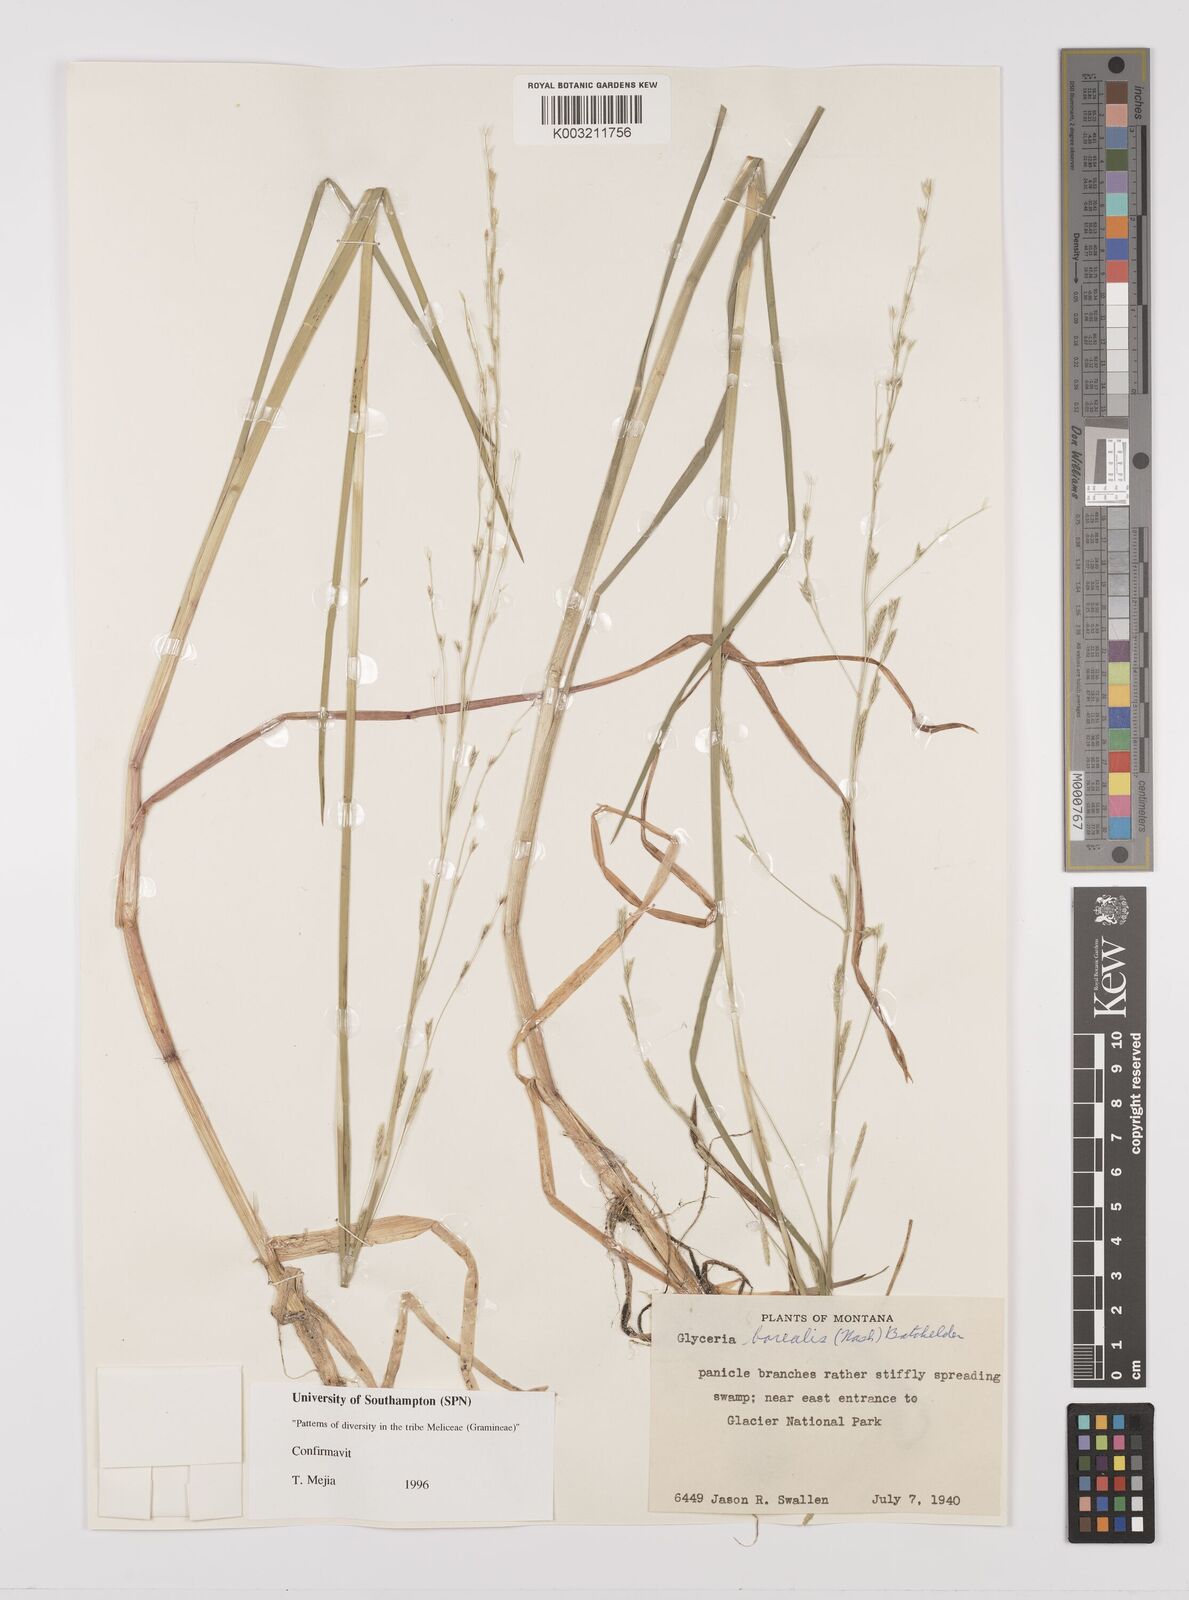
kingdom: Plantae
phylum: Tracheophyta
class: Liliopsida
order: Poales
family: Poaceae
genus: Glyceria
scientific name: Glyceria borealis
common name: Boreal glyceria
